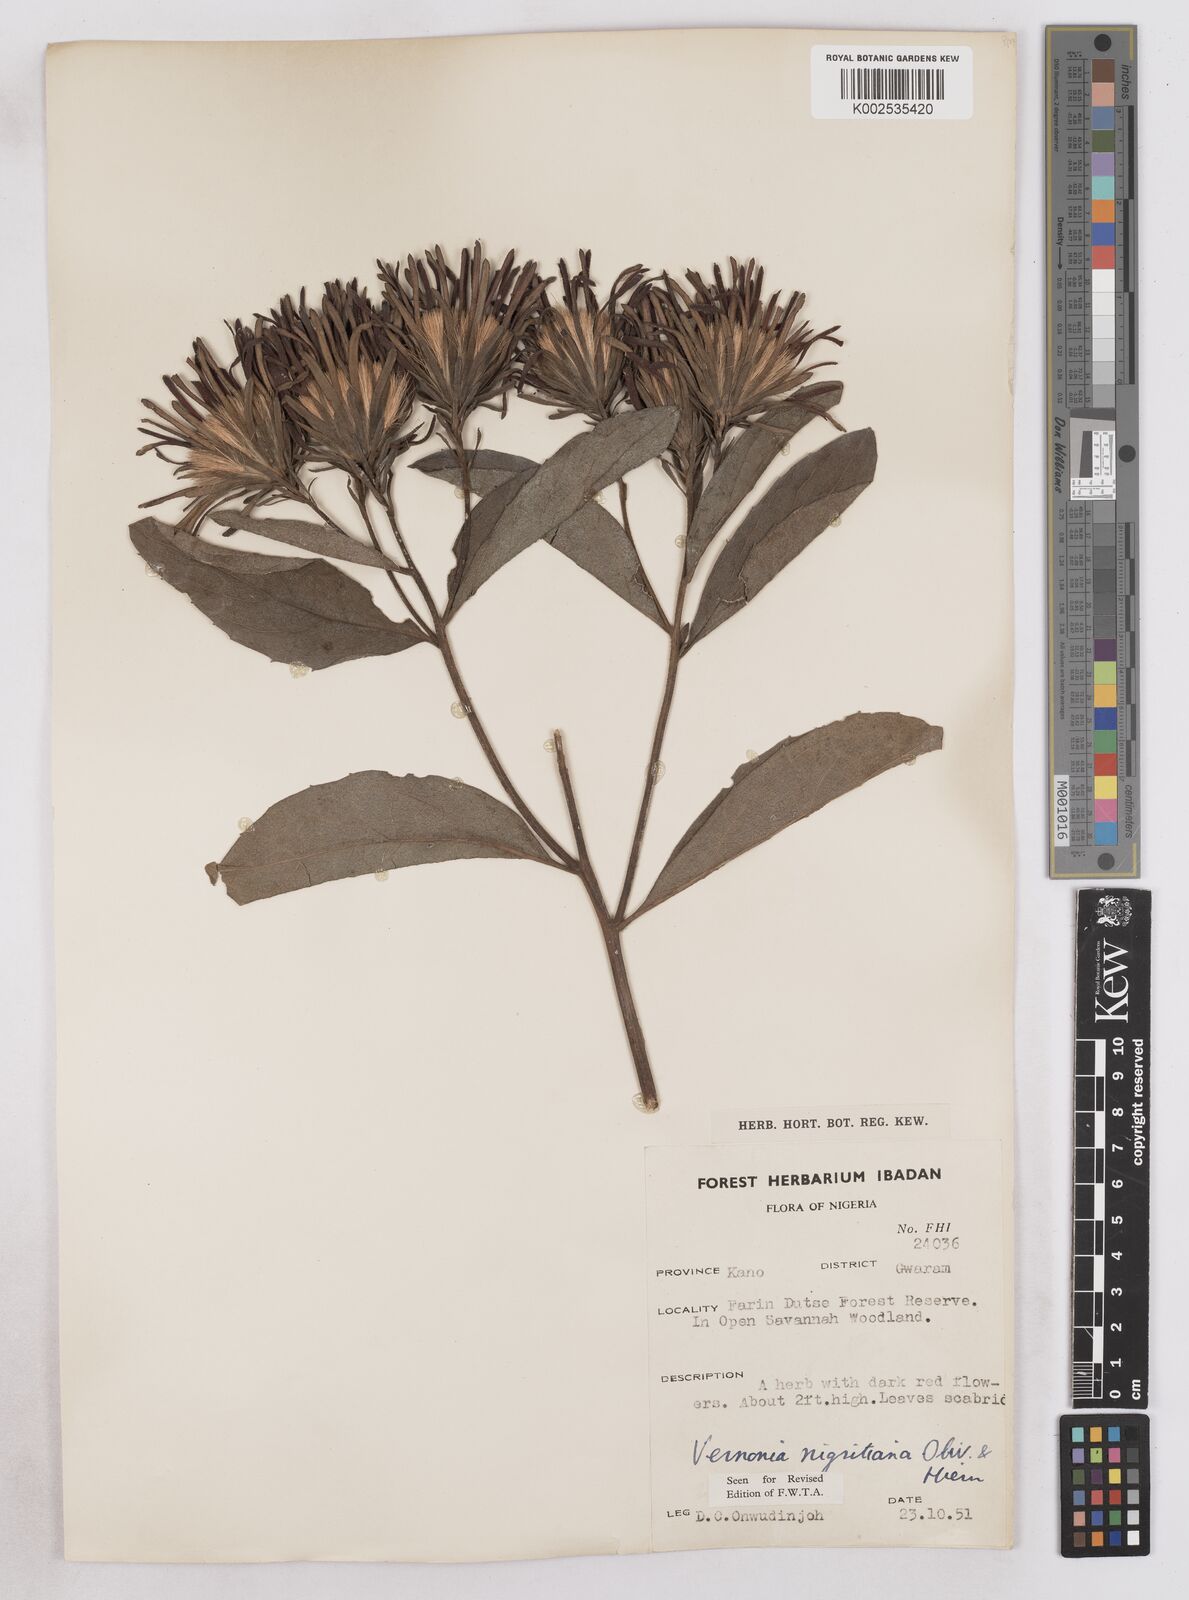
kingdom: Plantae
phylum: Tracheophyta
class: Magnoliopsida
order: Asterales
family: Asteraceae
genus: Linzia
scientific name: Linzia nigritiana
